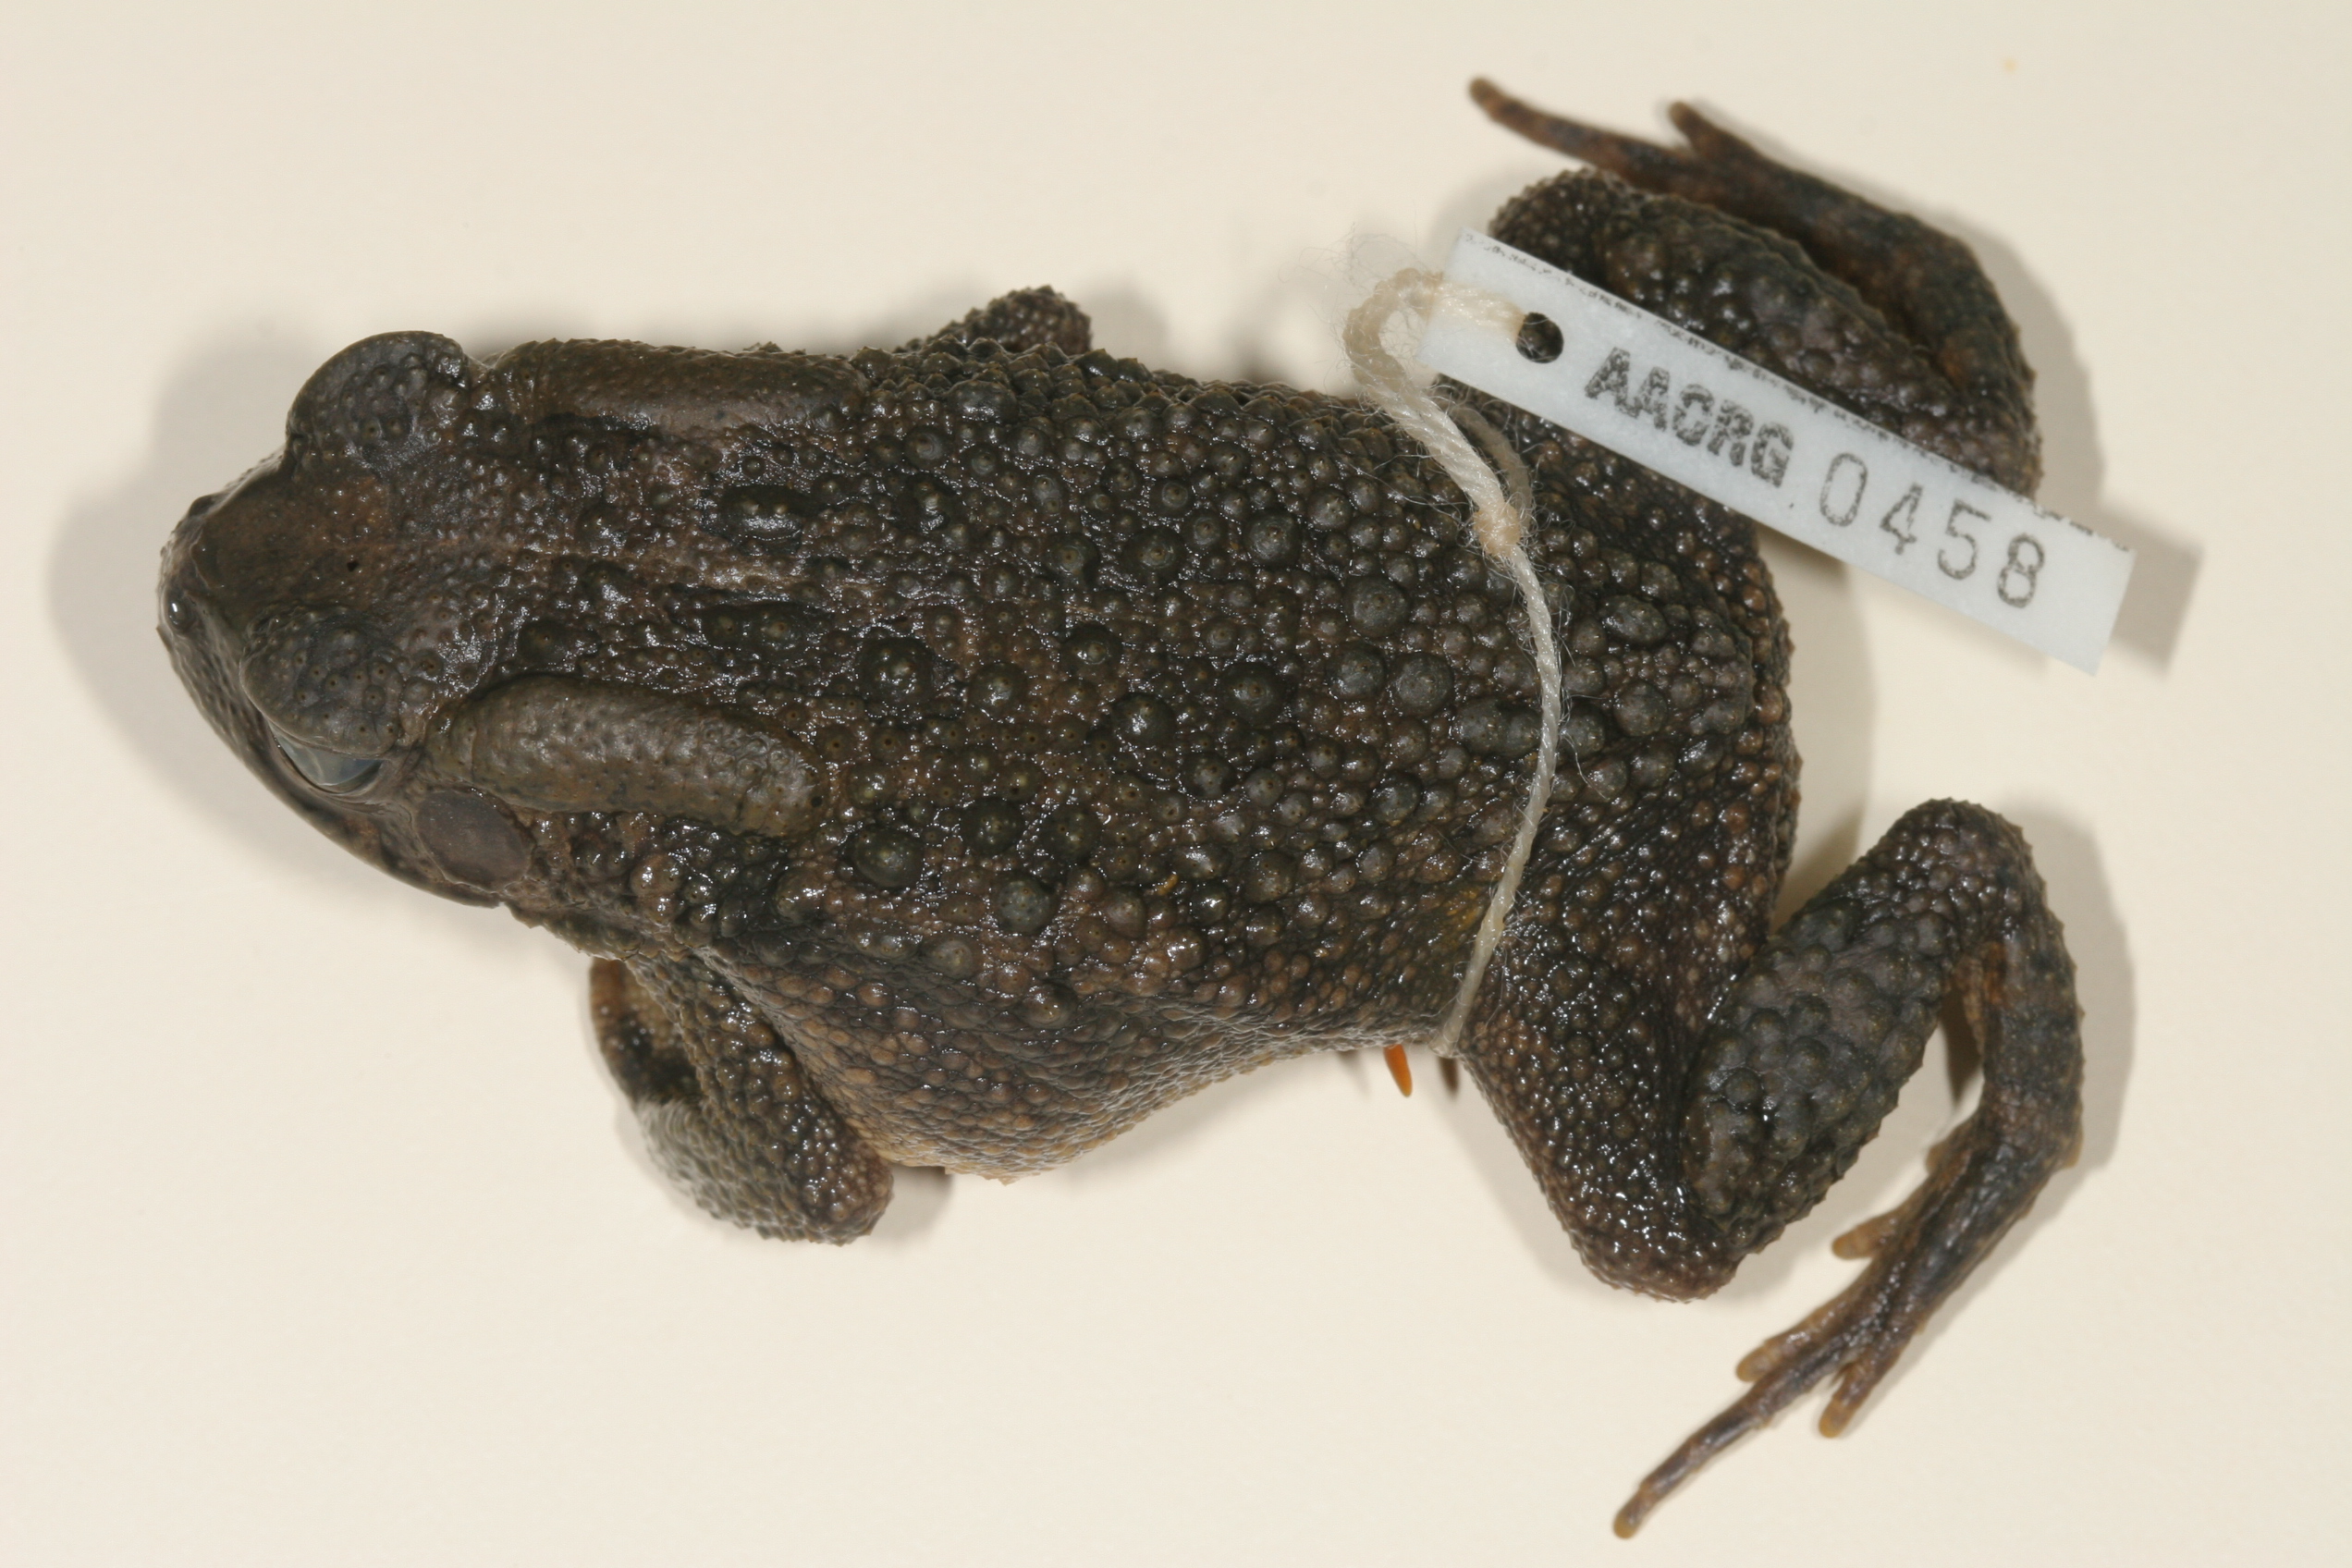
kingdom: Animalia
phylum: Chordata
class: Amphibia
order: Anura
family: Bufonidae
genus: Sclerophrys
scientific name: Sclerophrys garmani
